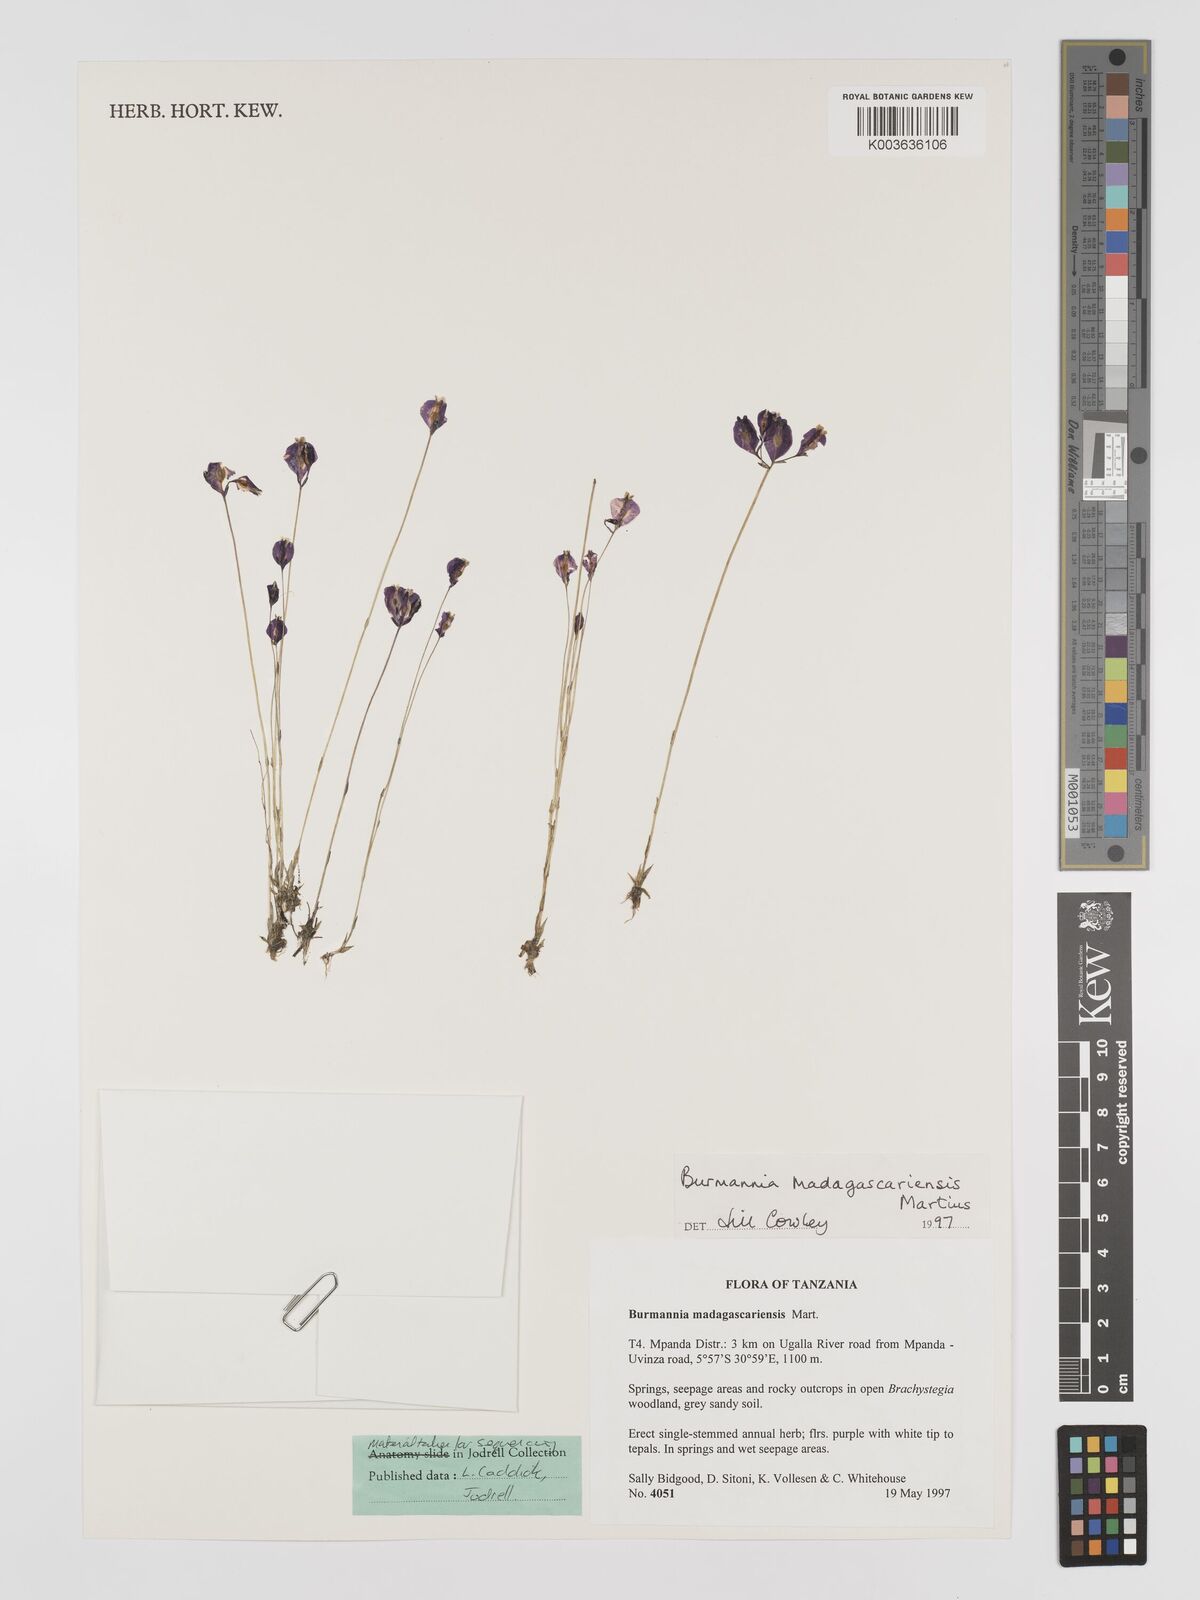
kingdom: Plantae
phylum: Tracheophyta
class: Liliopsida
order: Dioscoreales
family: Burmanniaceae
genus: Burmannia
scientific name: Burmannia madagascariensis
